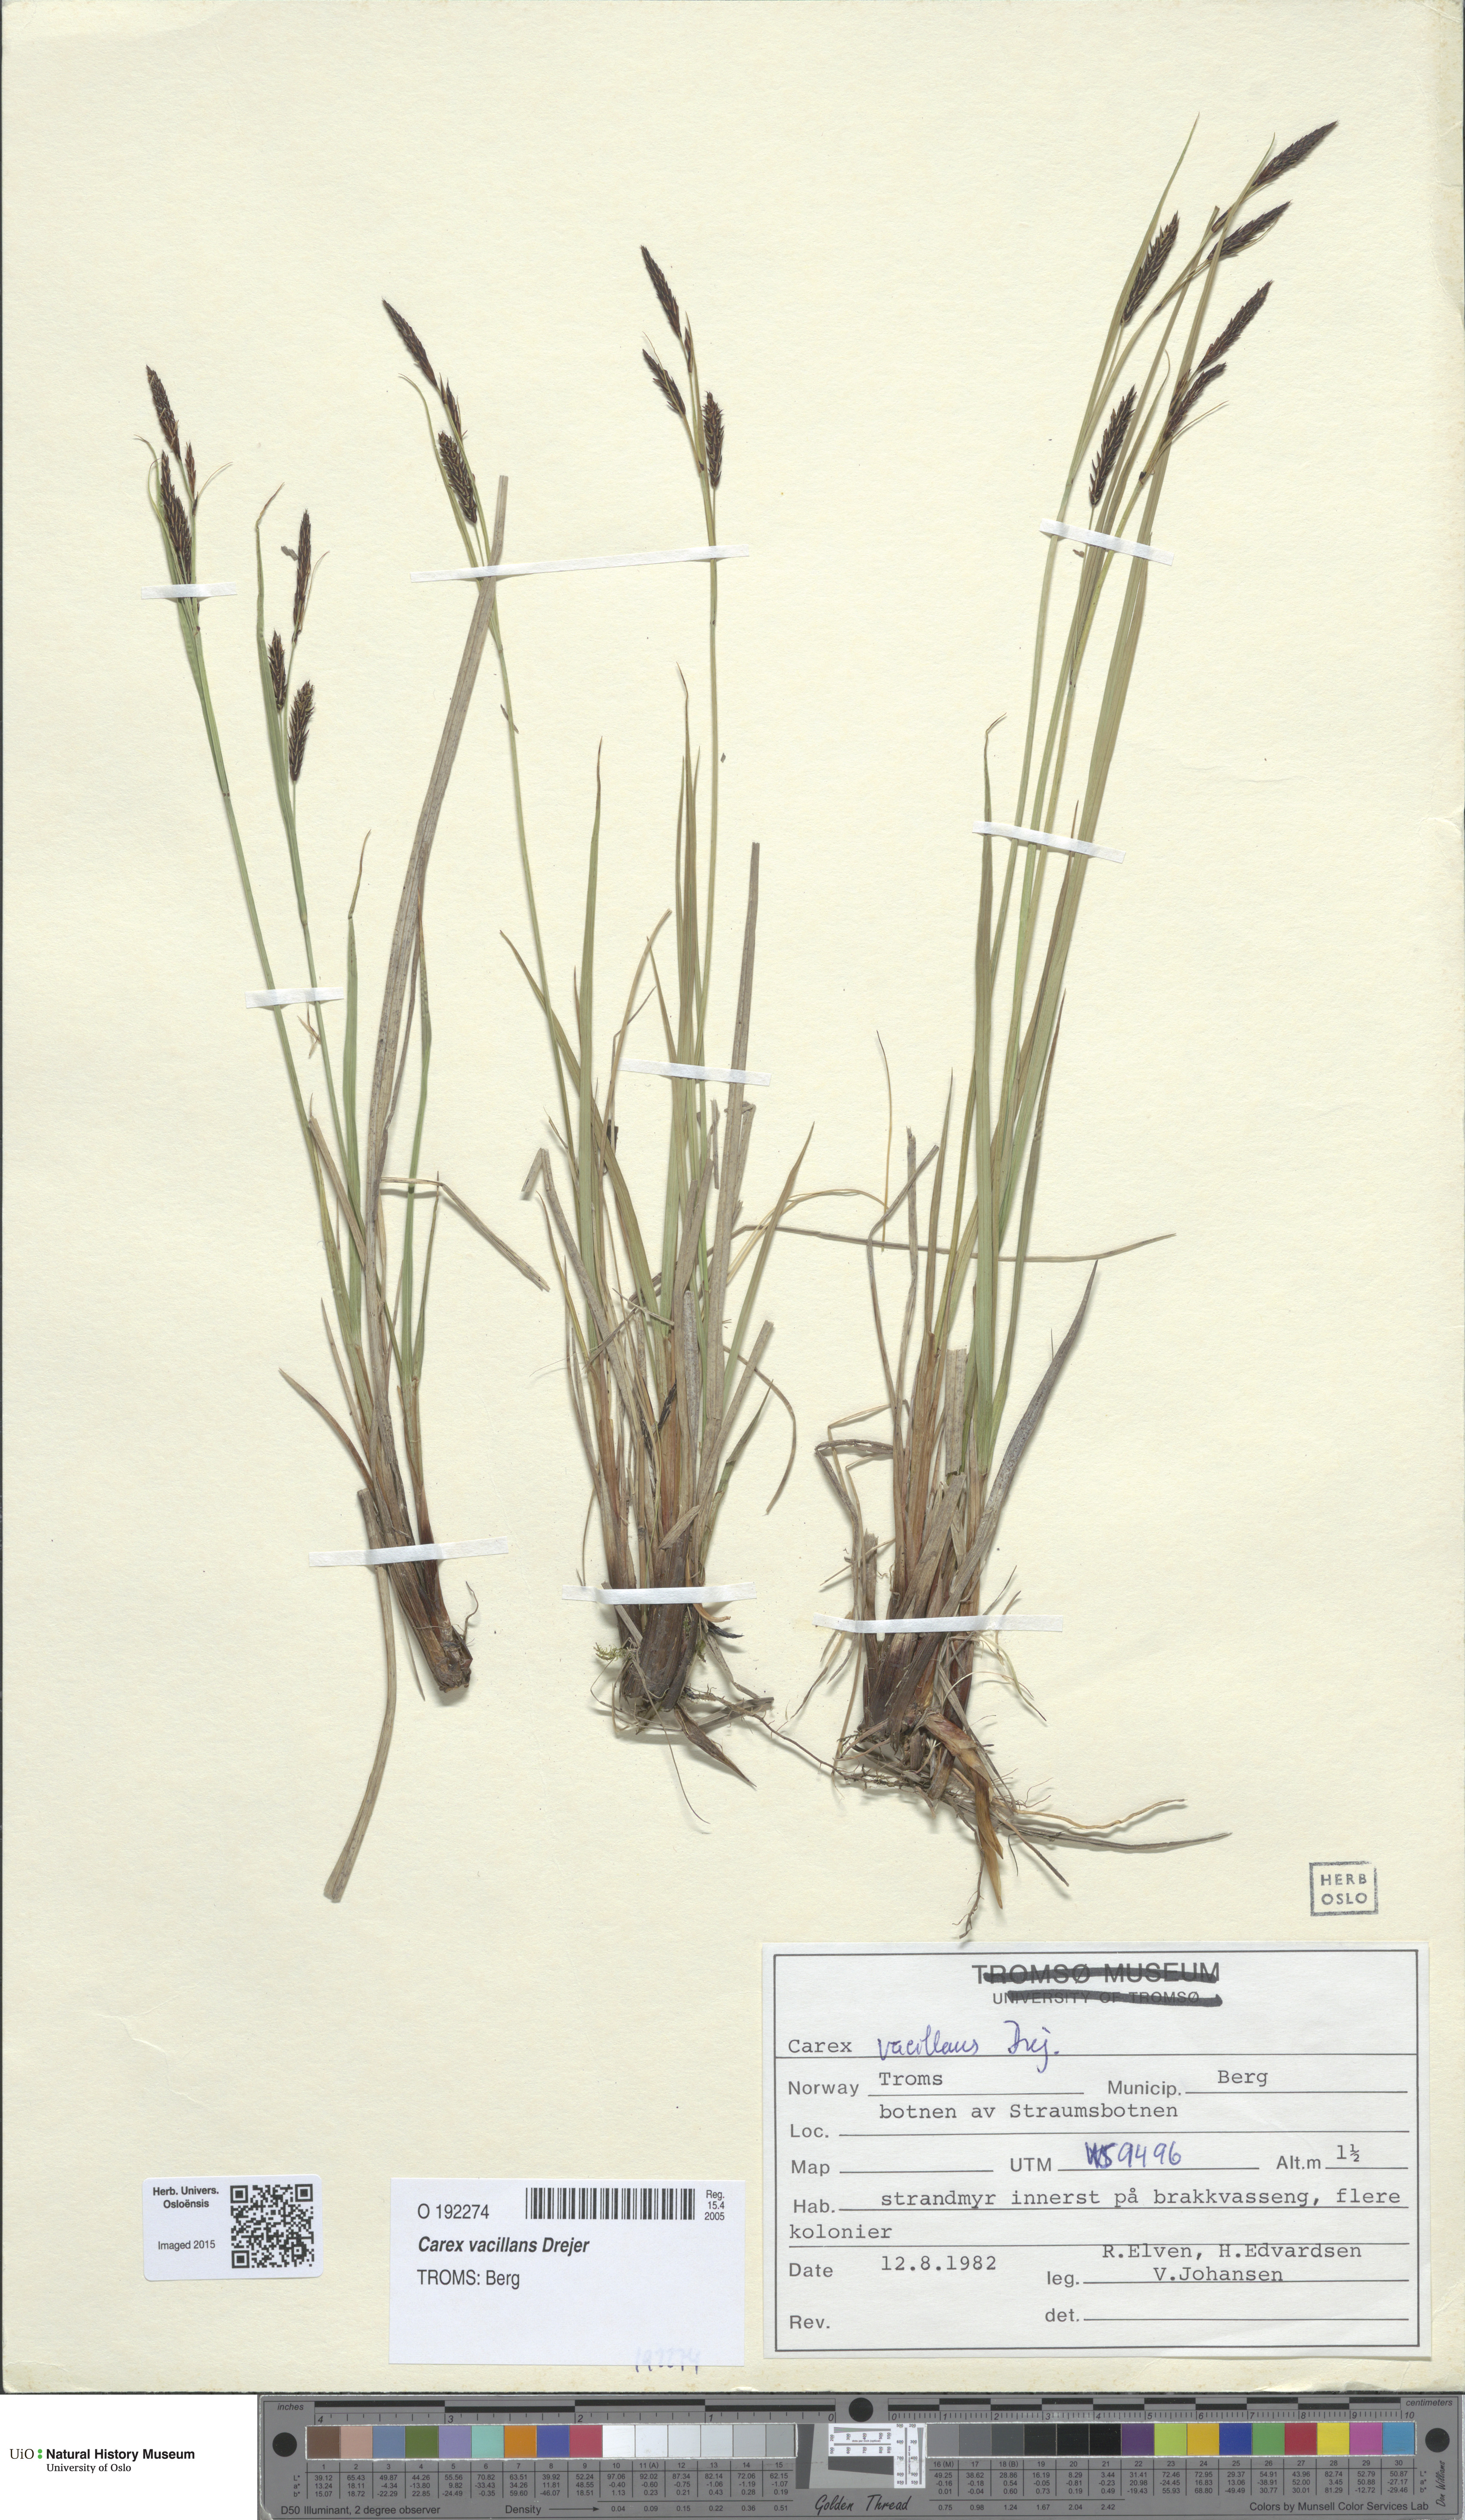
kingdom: Plantae
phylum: Tracheophyta
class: Liliopsida
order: Poales
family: Cyperaceae
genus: Carex
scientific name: Carex vacillans
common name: Sedge
